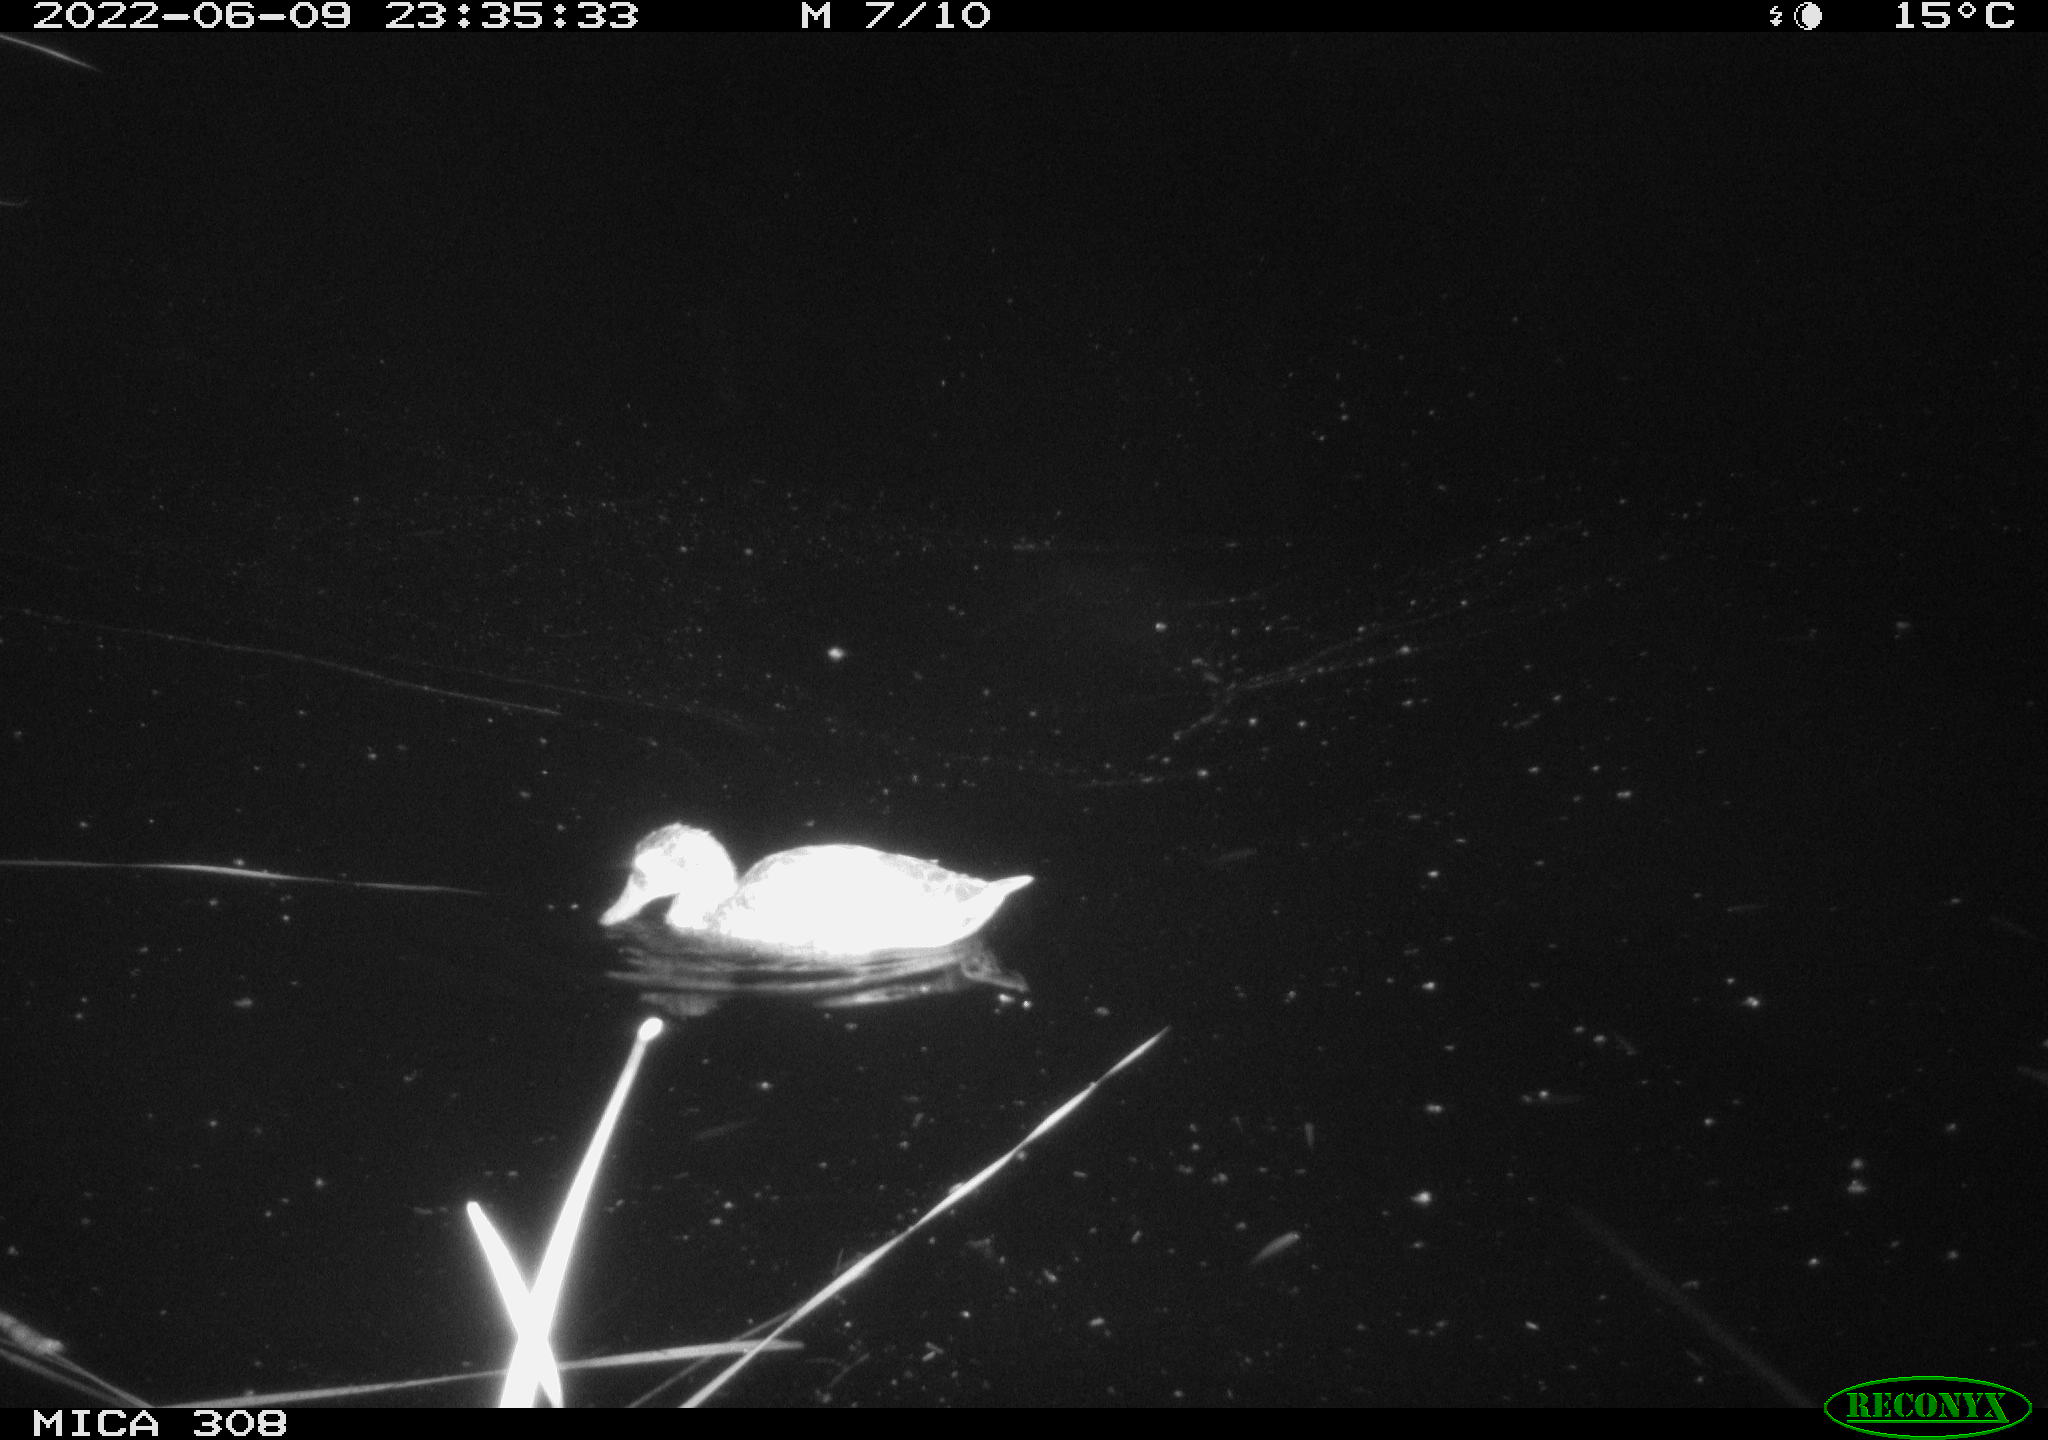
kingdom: Animalia
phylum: Chordata
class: Aves
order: Anseriformes
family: Anatidae
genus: Anas
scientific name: Anas platyrhynchos
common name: Mallard
